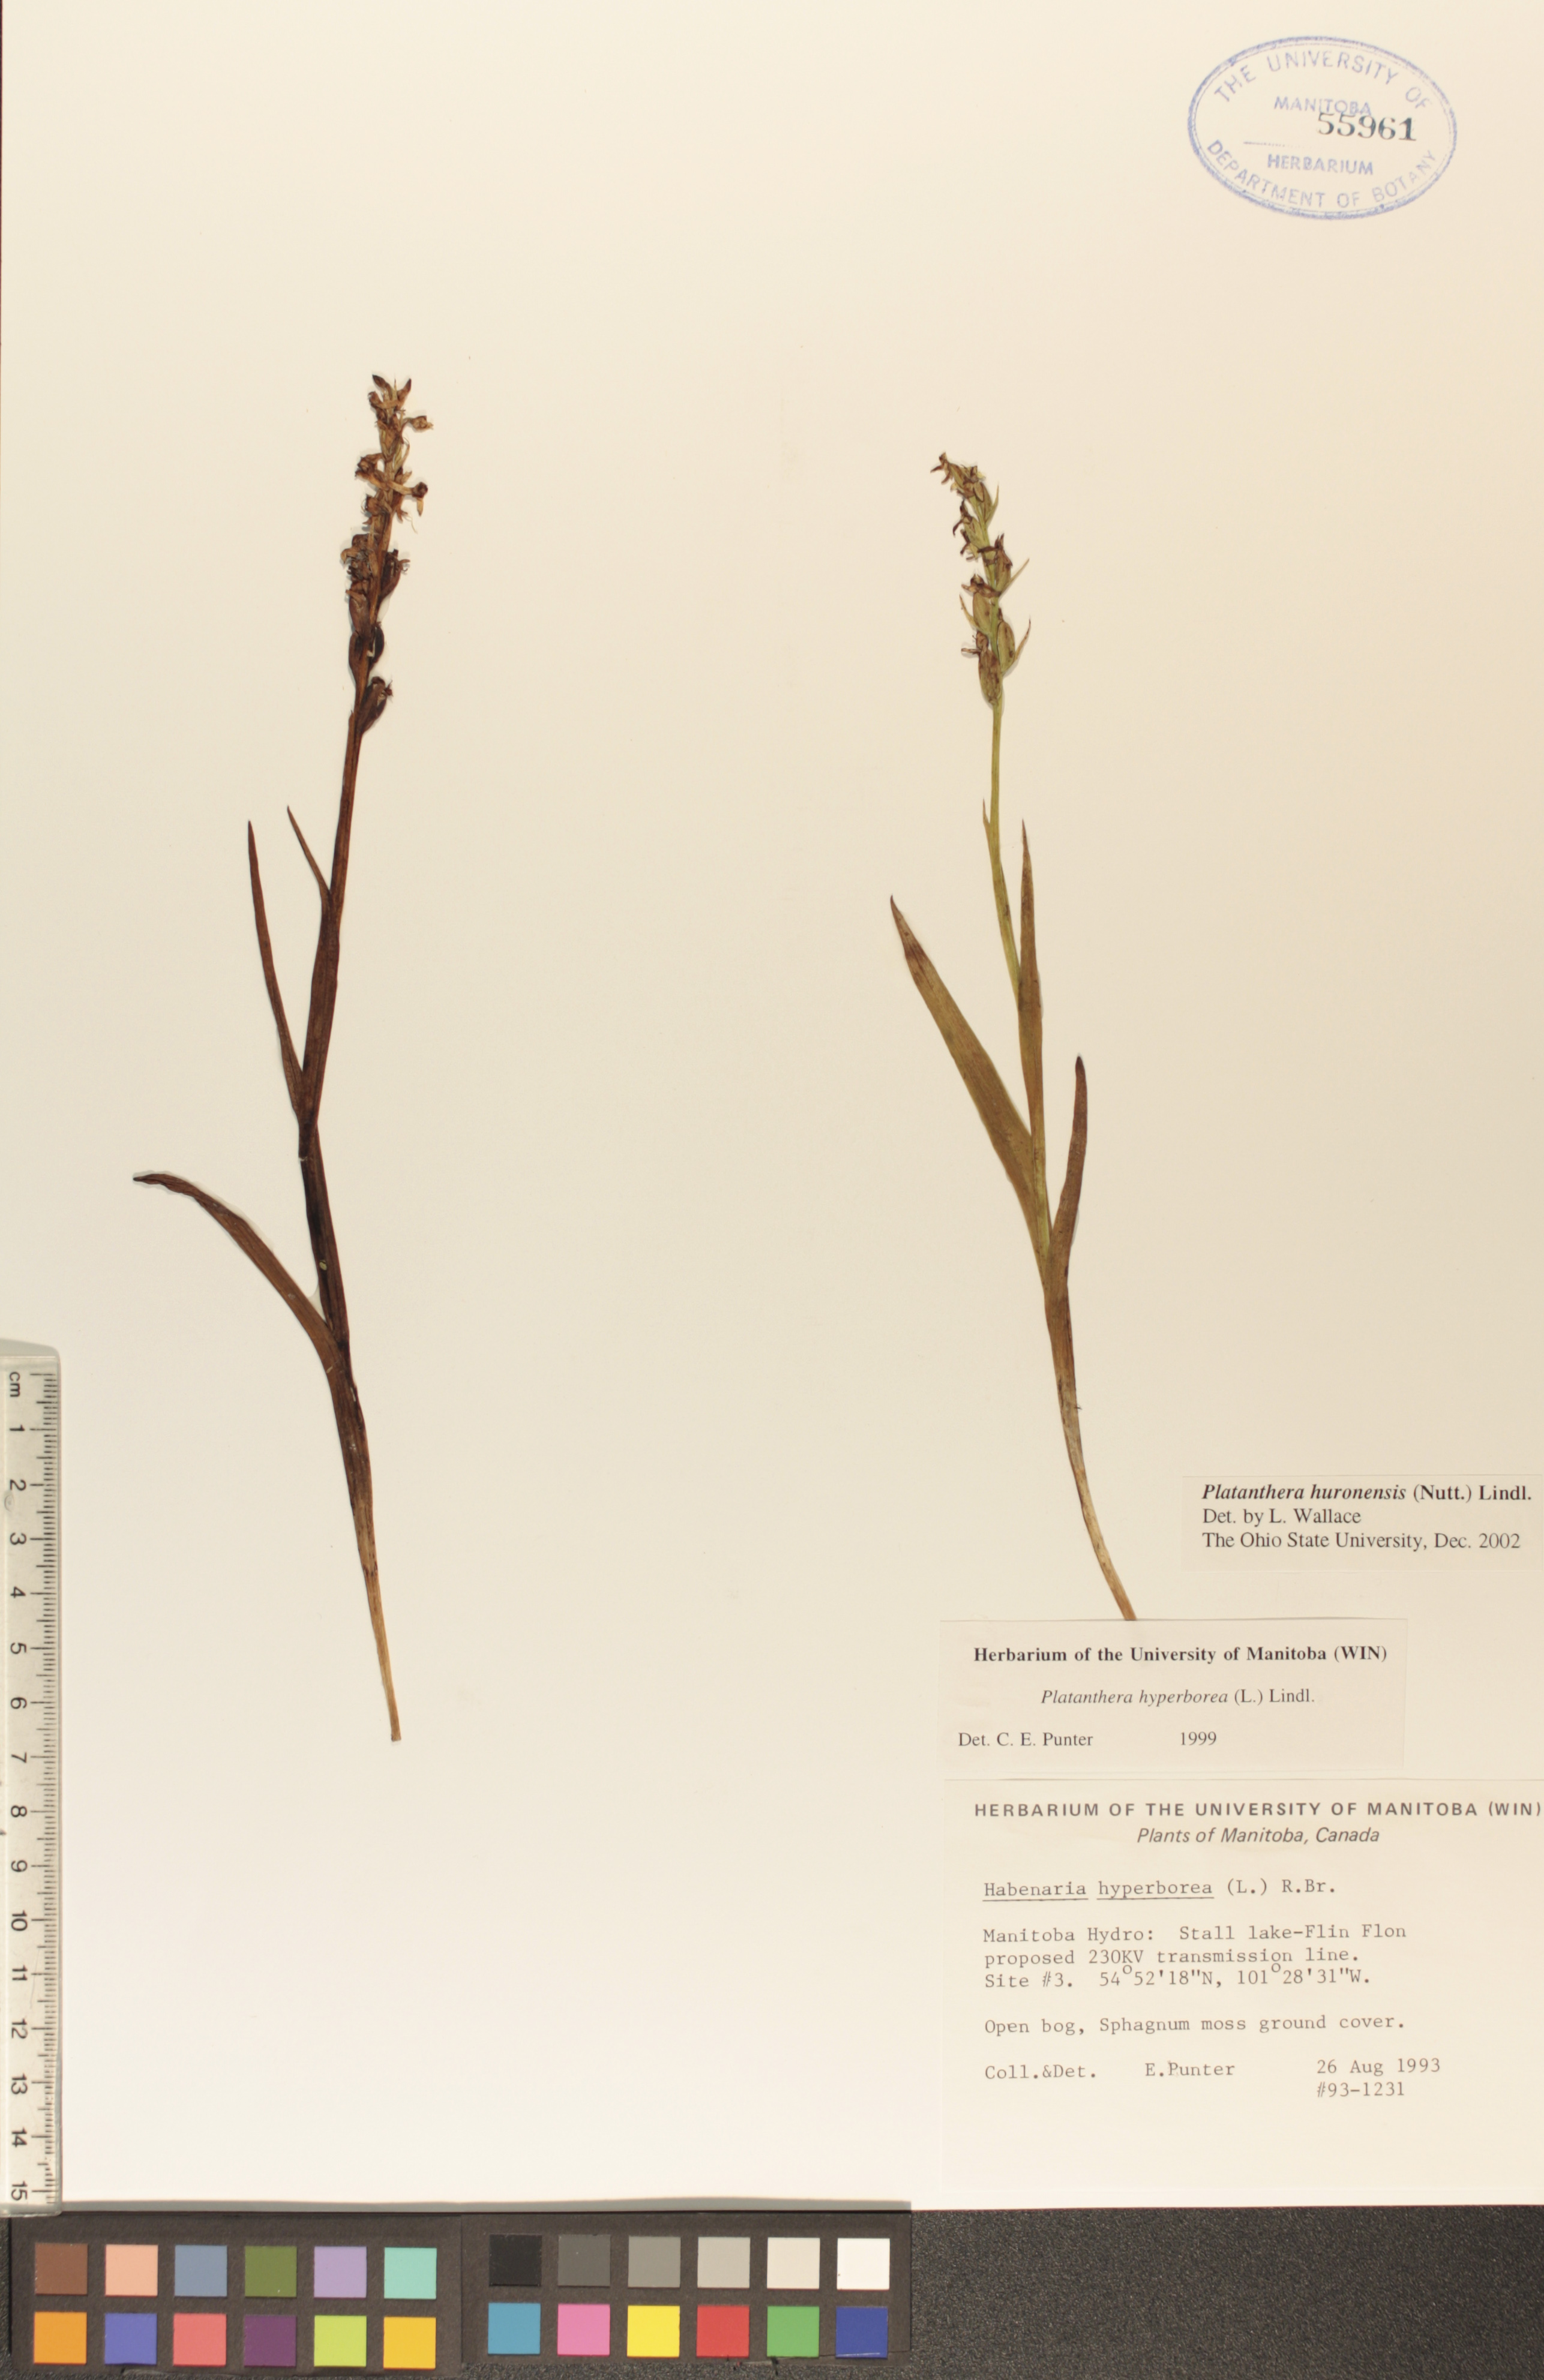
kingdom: Plantae
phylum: Tracheophyta
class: Liliopsida
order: Asparagales
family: Orchidaceae
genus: Platanthera
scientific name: Platanthera huronensis
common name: Fragrant green orchid
